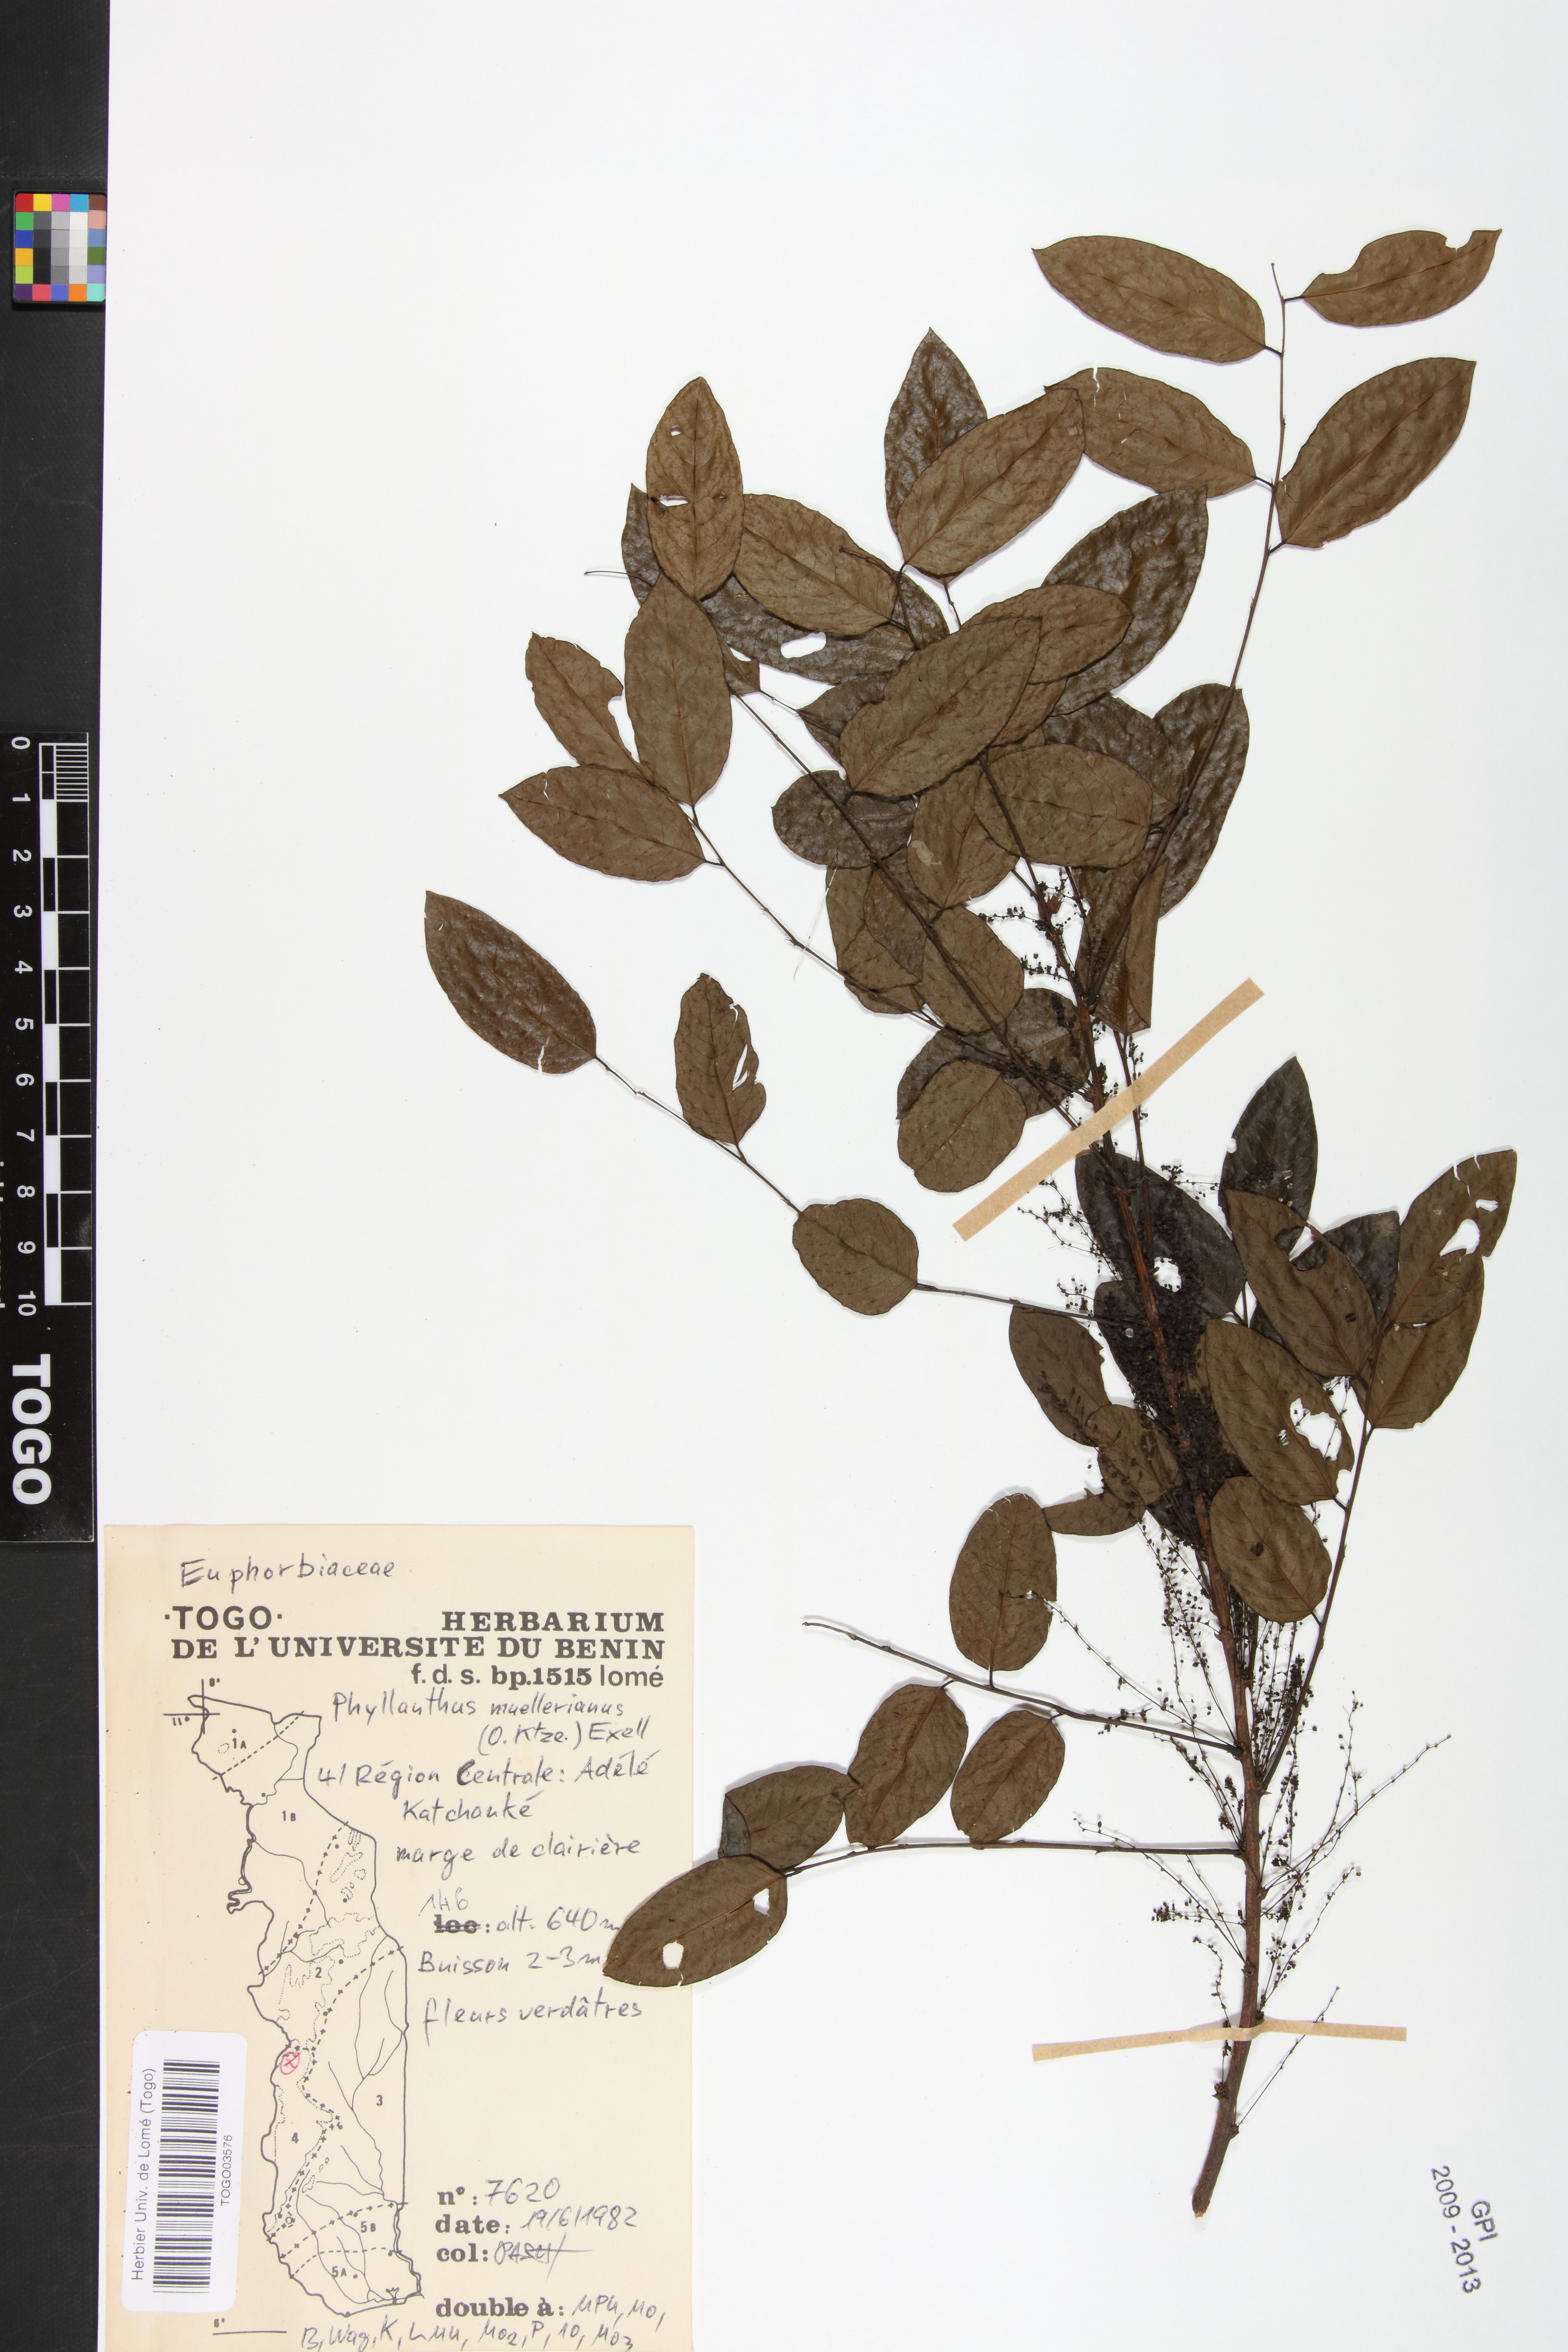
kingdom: Plantae
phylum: Tracheophyta
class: Magnoliopsida
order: Malpighiales
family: Phyllanthaceae
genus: Phyllanthus
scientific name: Phyllanthus muellerianus
